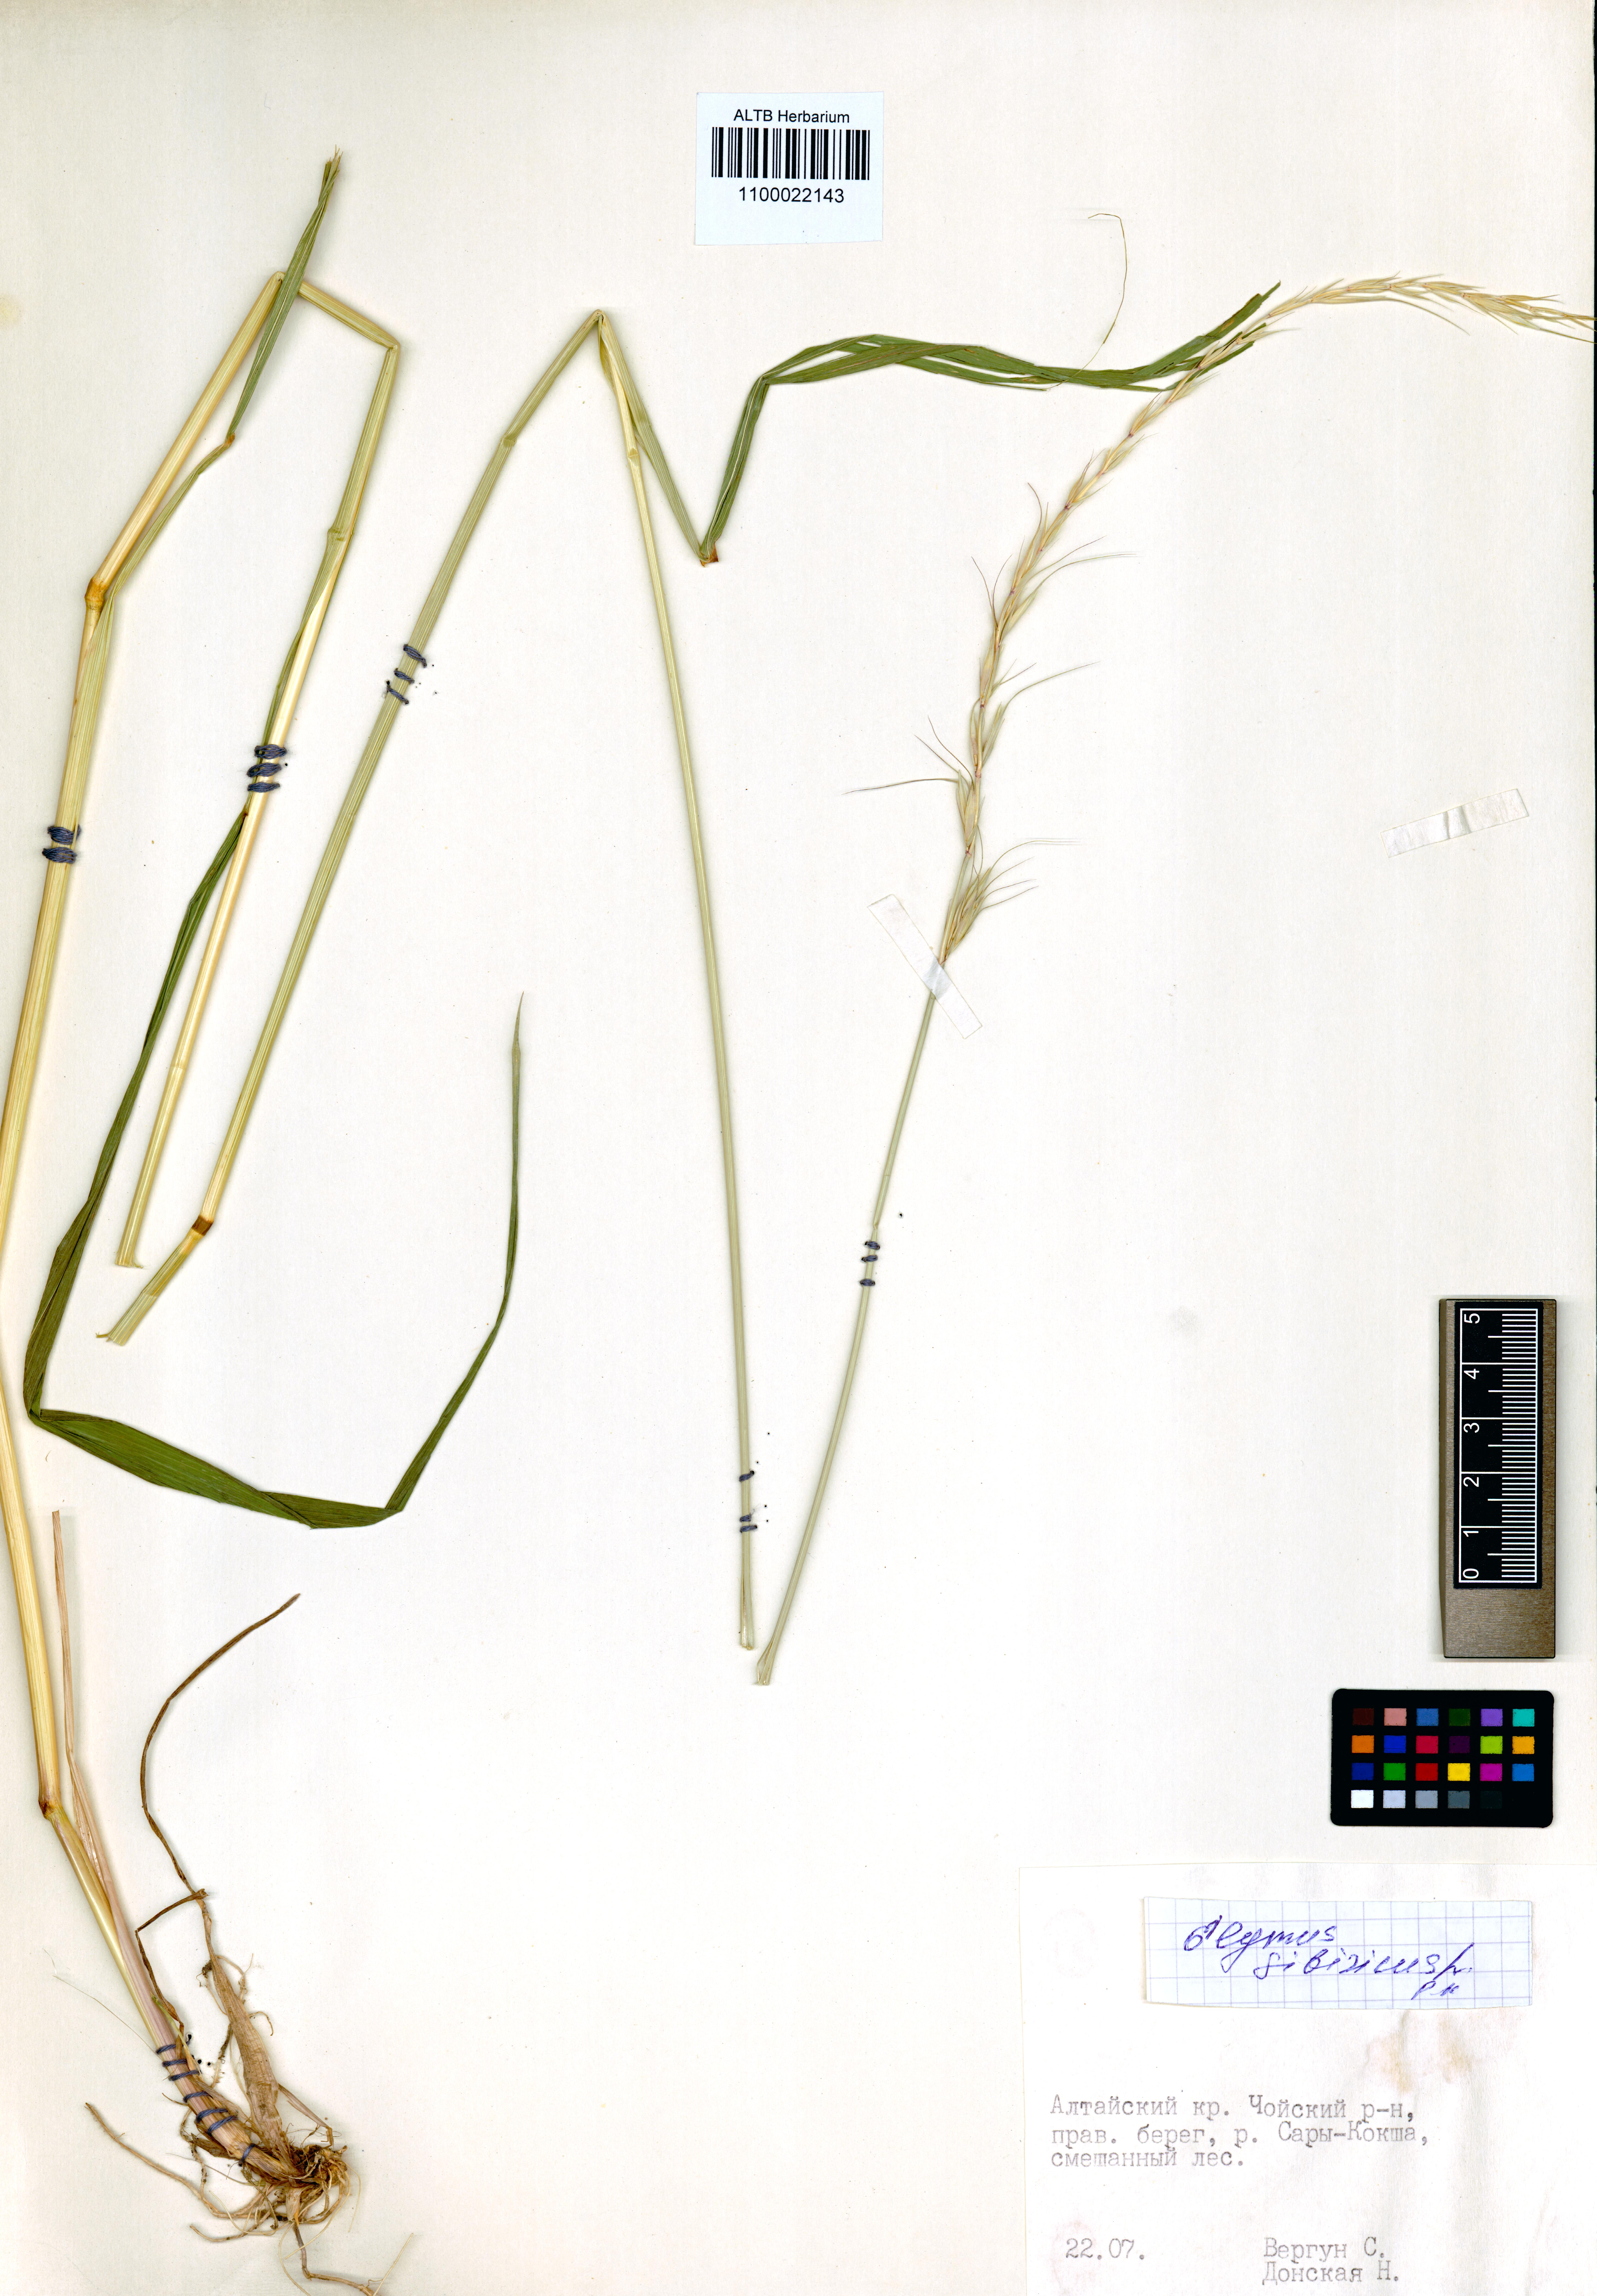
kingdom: Plantae
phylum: Tracheophyta
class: Liliopsida
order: Poales
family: Poaceae
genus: Elymus
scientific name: Elymus sibiricus
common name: Siberian wildrye
